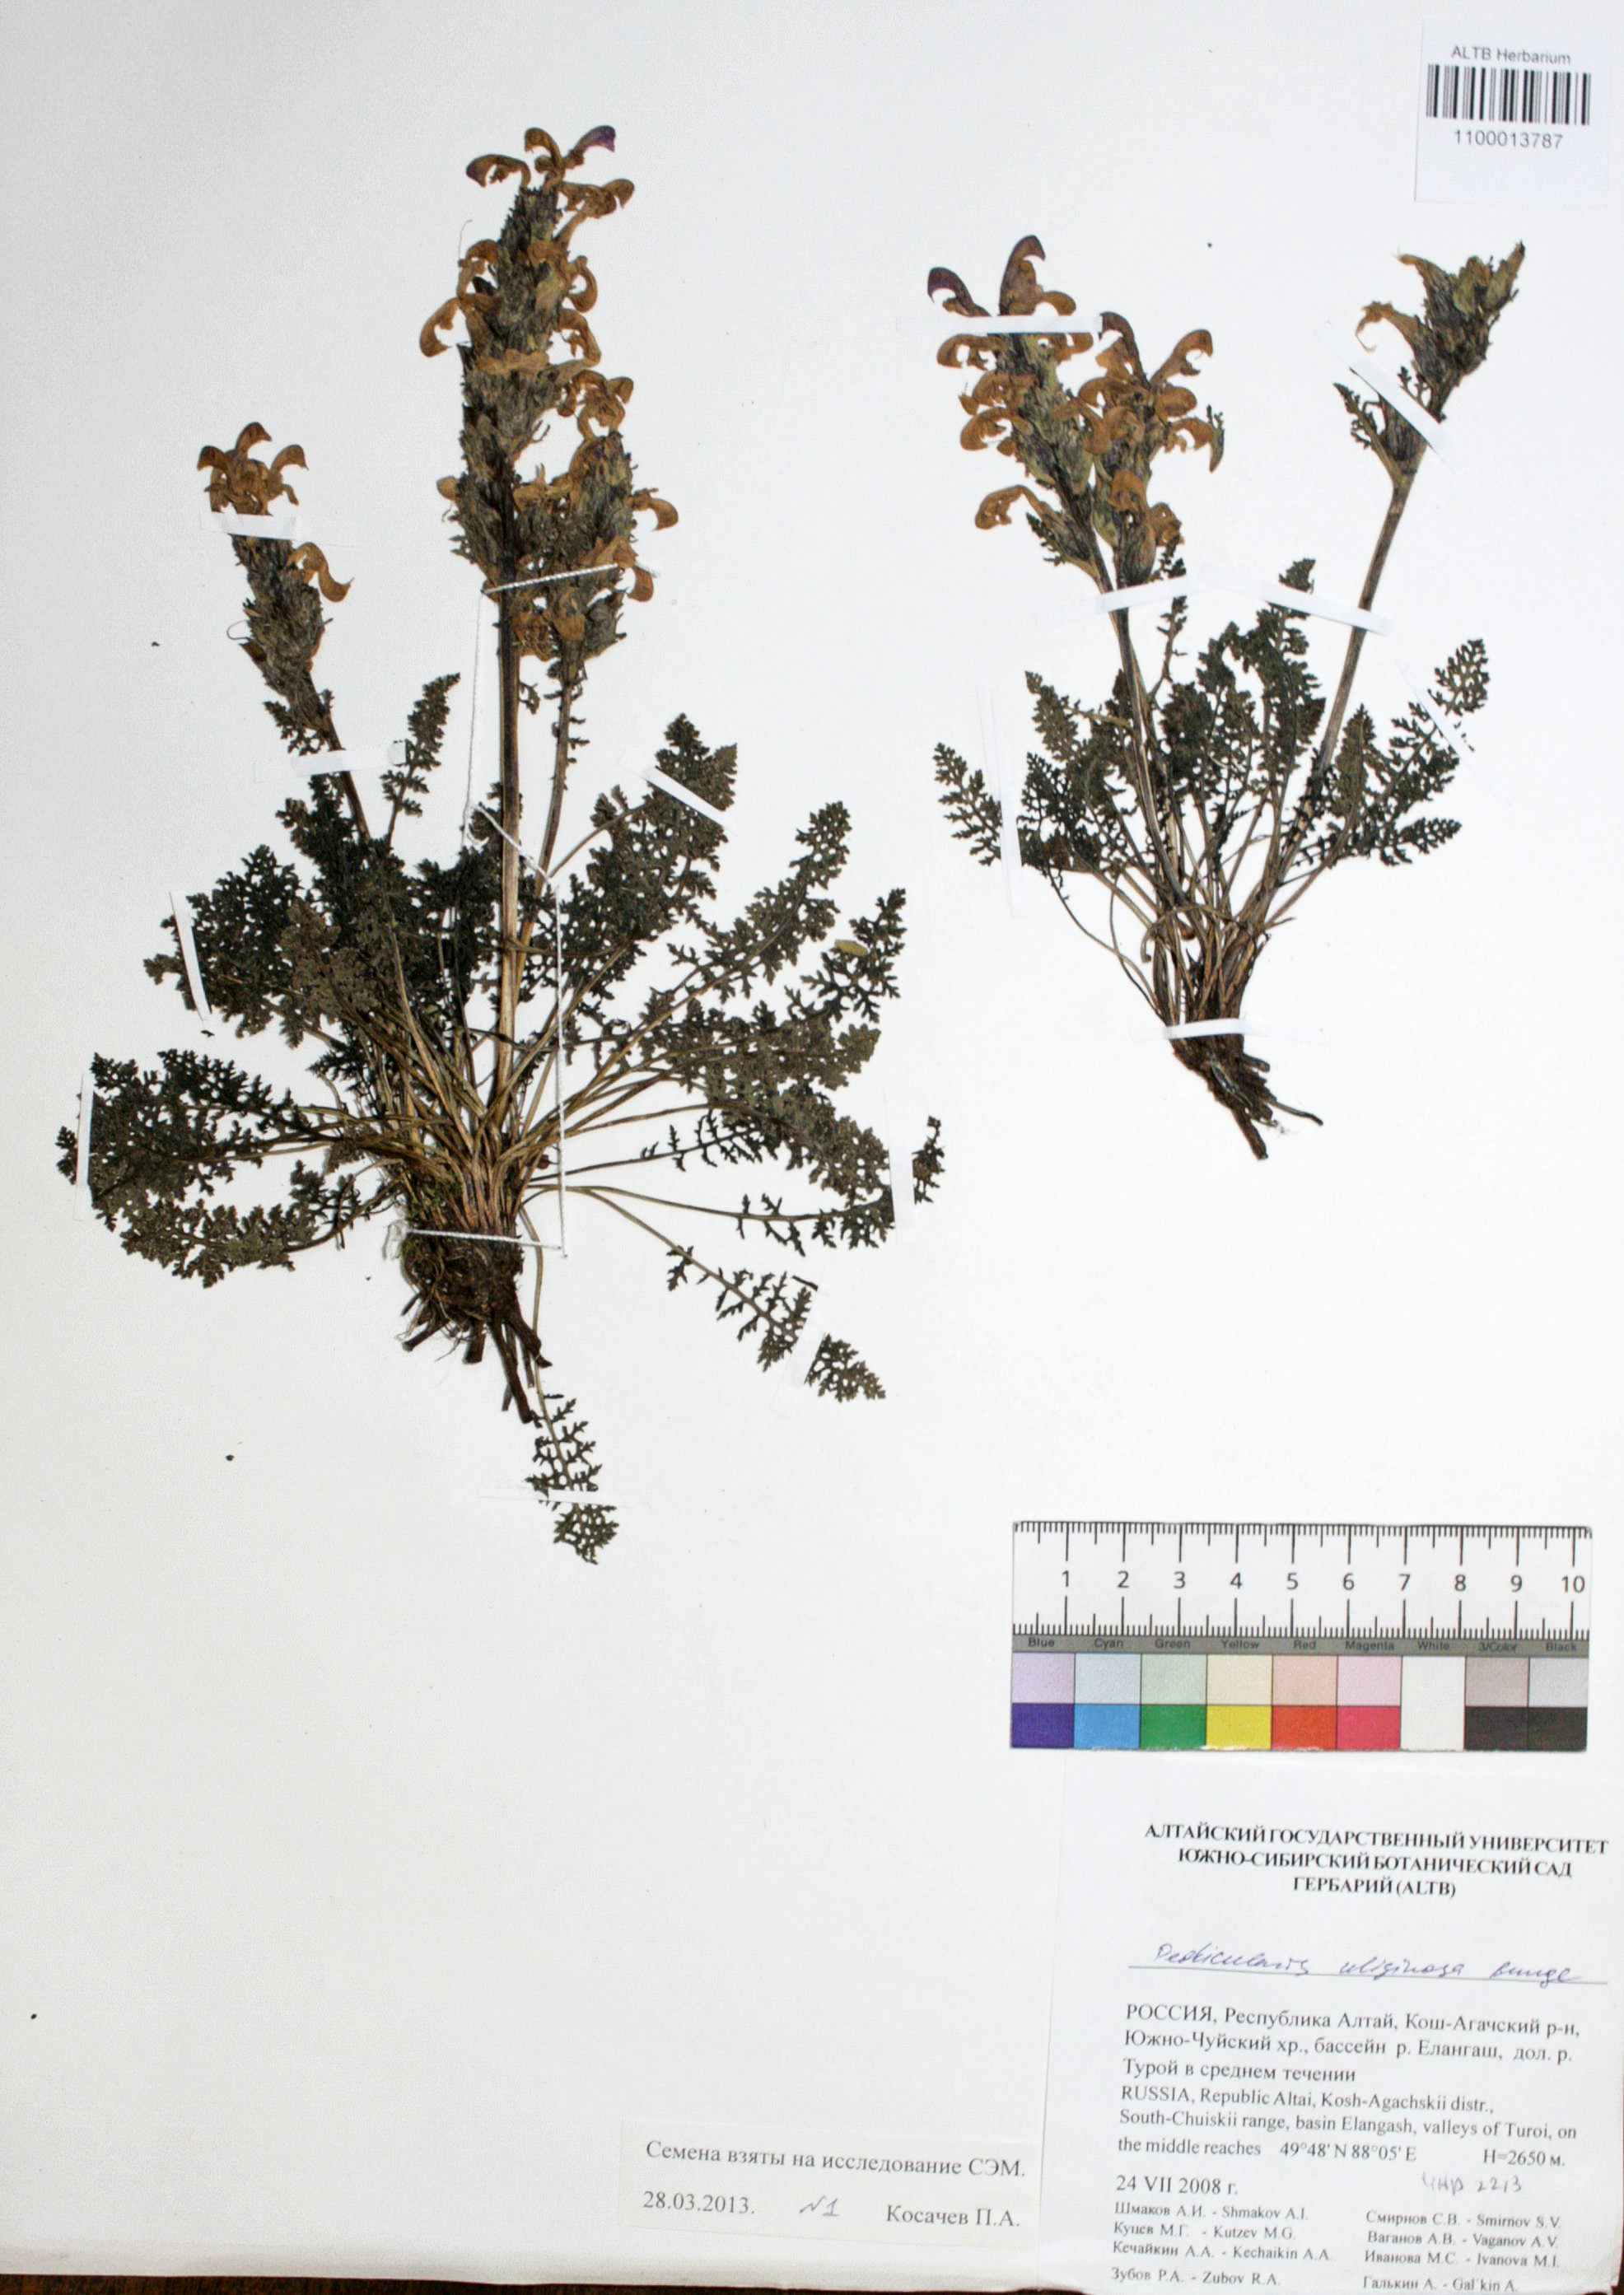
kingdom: Plantae
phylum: Tracheophyta
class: Magnoliopsida
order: Lamiales
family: Orobanchaceae
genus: Pedicularis
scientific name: Pedicularis uliginosa
